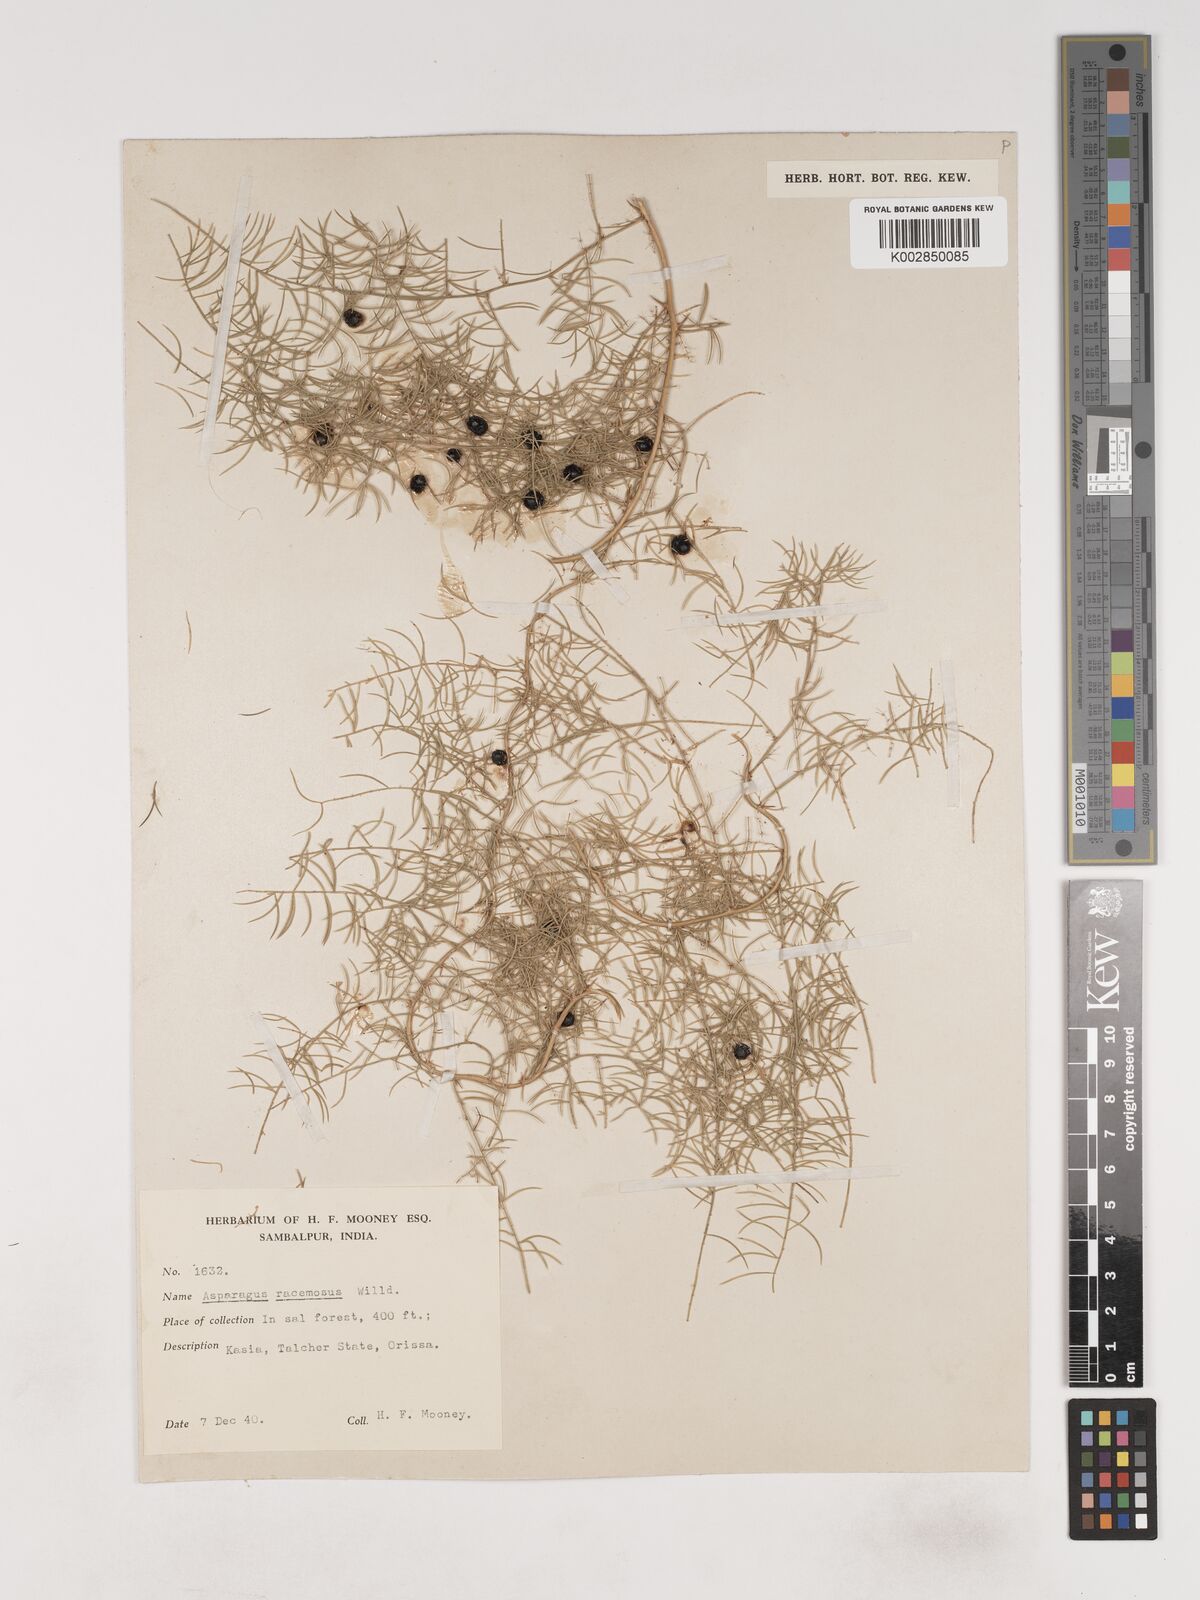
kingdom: Plantae
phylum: Tracheophyta
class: Liliopsida
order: Asparagales
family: Asparagaceae
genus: Asparagus
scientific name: Asparagus racemosus
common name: Asparagus-fern
